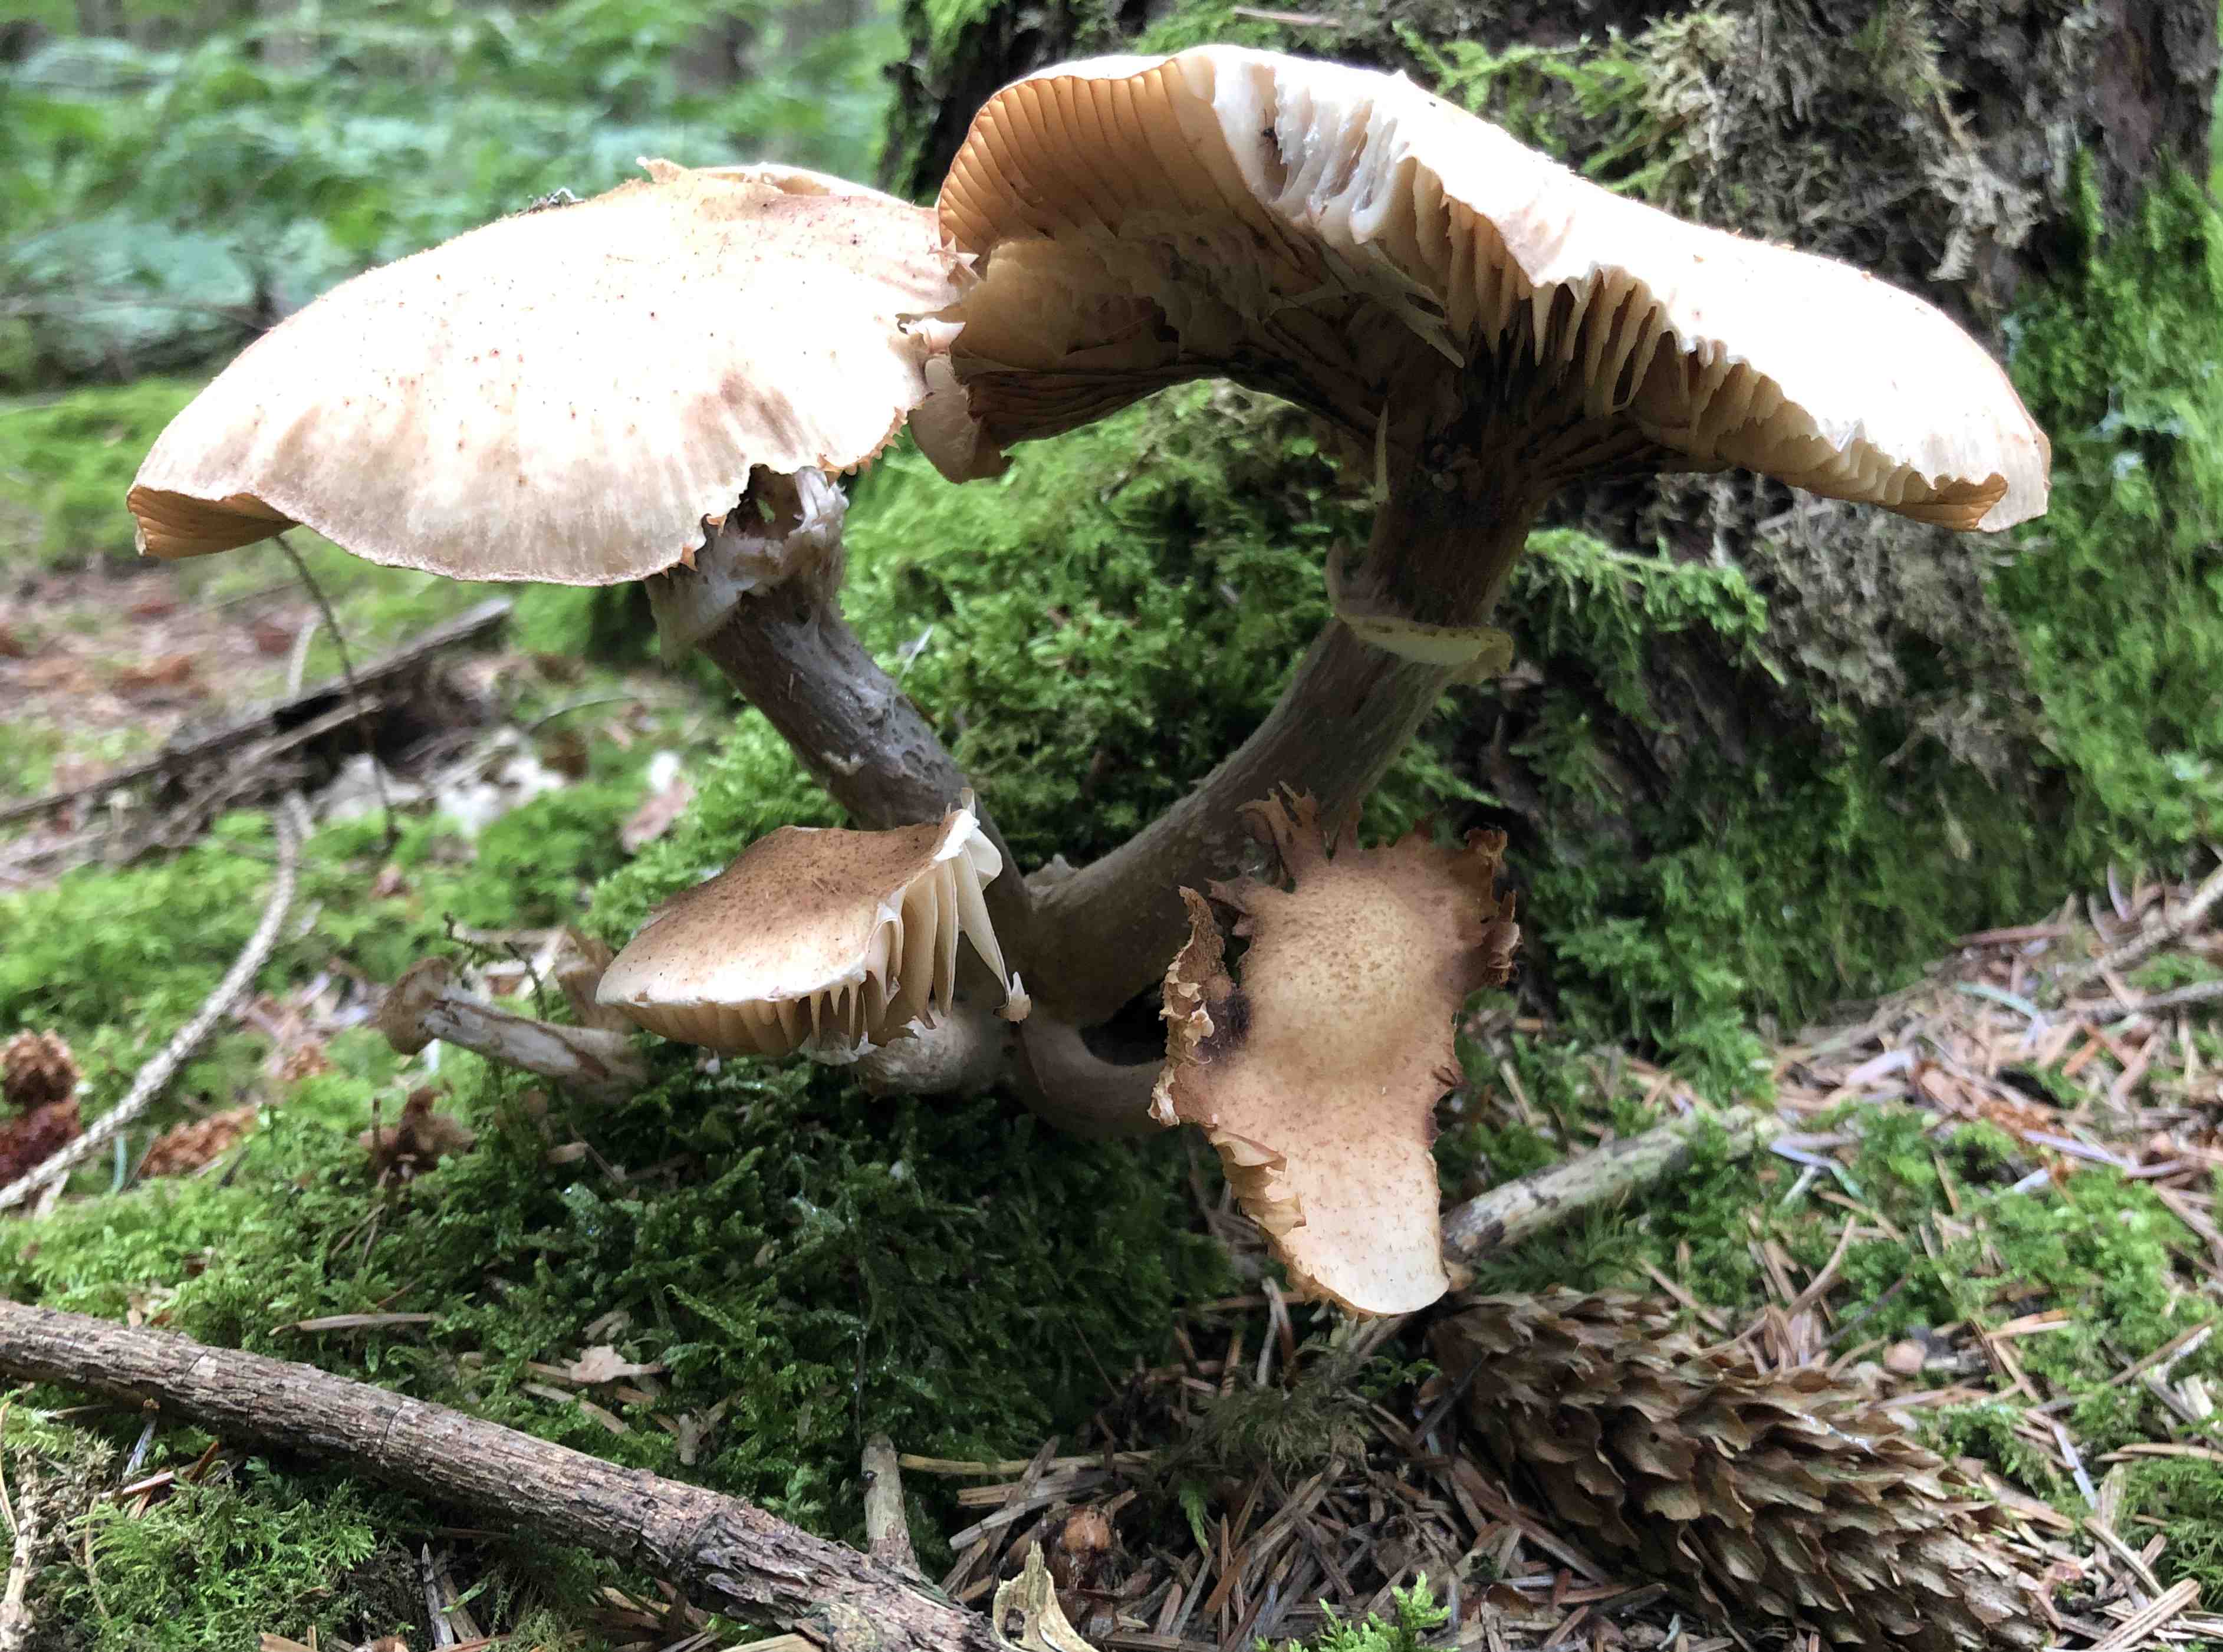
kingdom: Fungi
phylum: Basidiomycota
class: Agaricomycetes
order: Agaricales
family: Physalacriaceae
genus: Armillaria
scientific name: Armillaria
